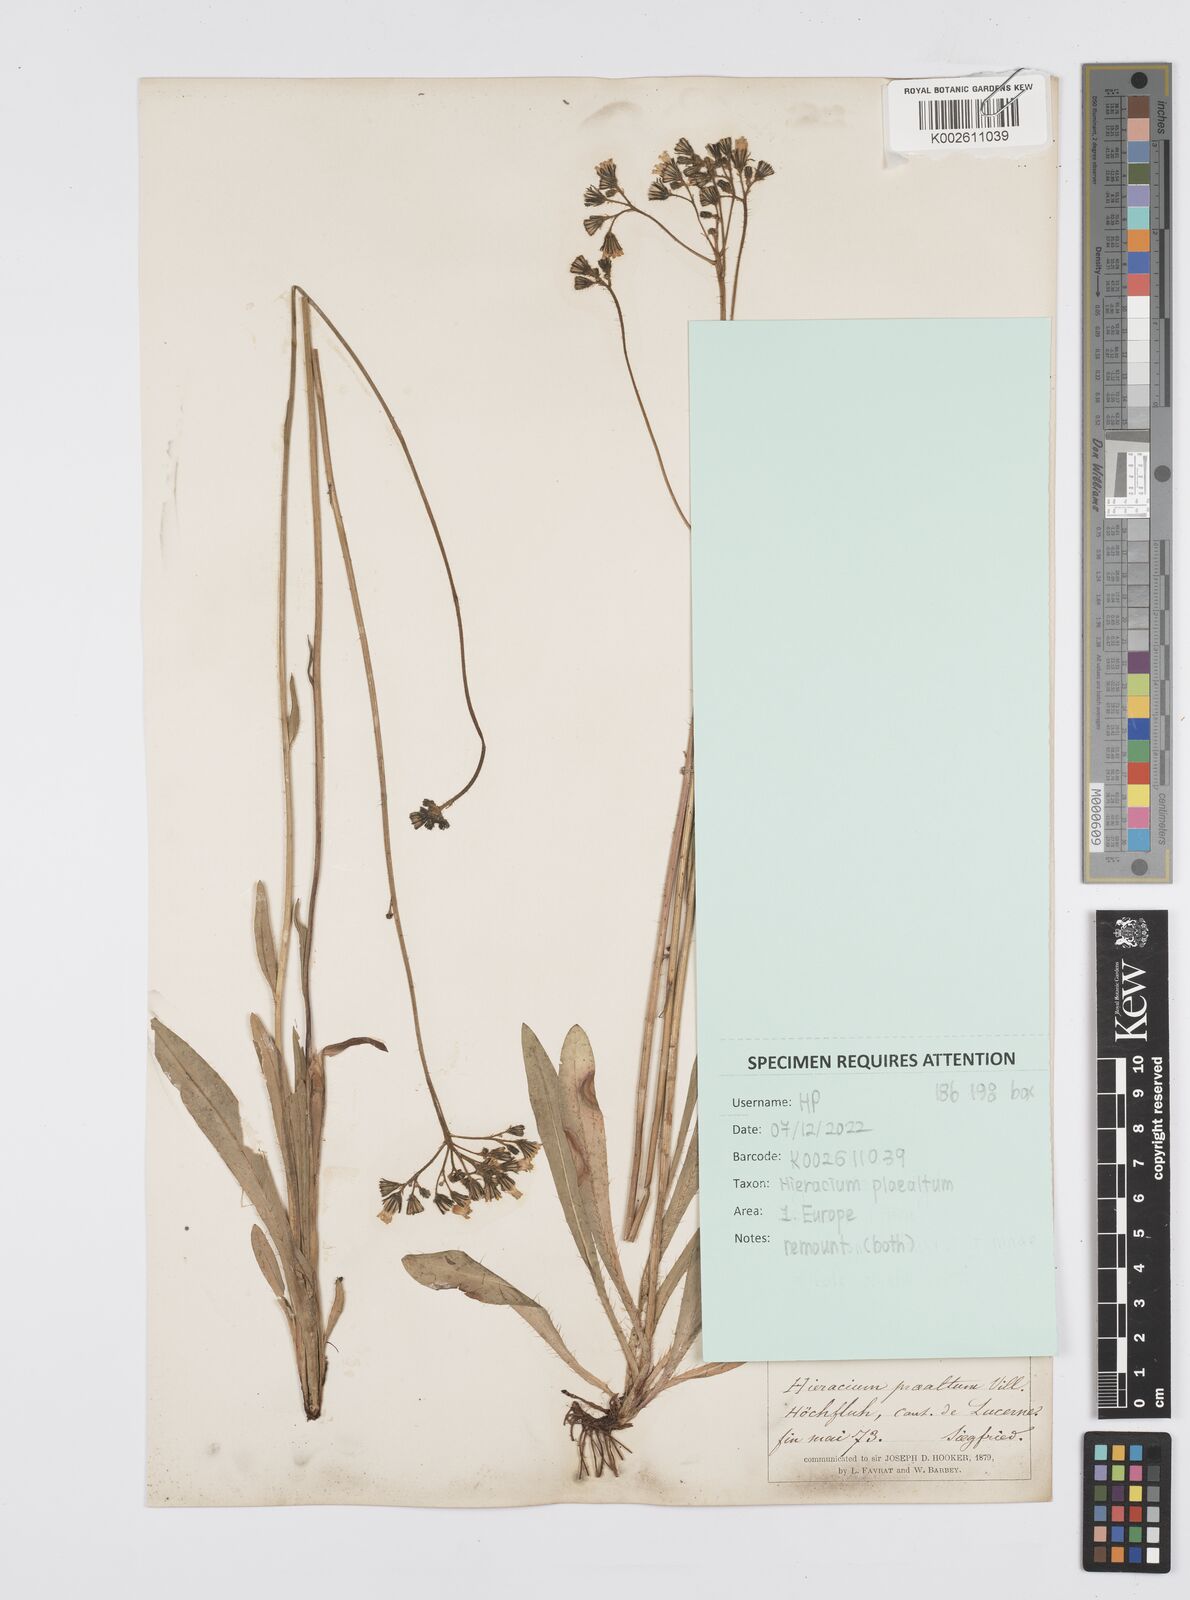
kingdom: Plantae
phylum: Tracheophyta
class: Magnoliopsida
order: Asterales
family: Asteraceae
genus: Pilosella
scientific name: Pilosella piloselloides
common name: Glaucous king-devil
